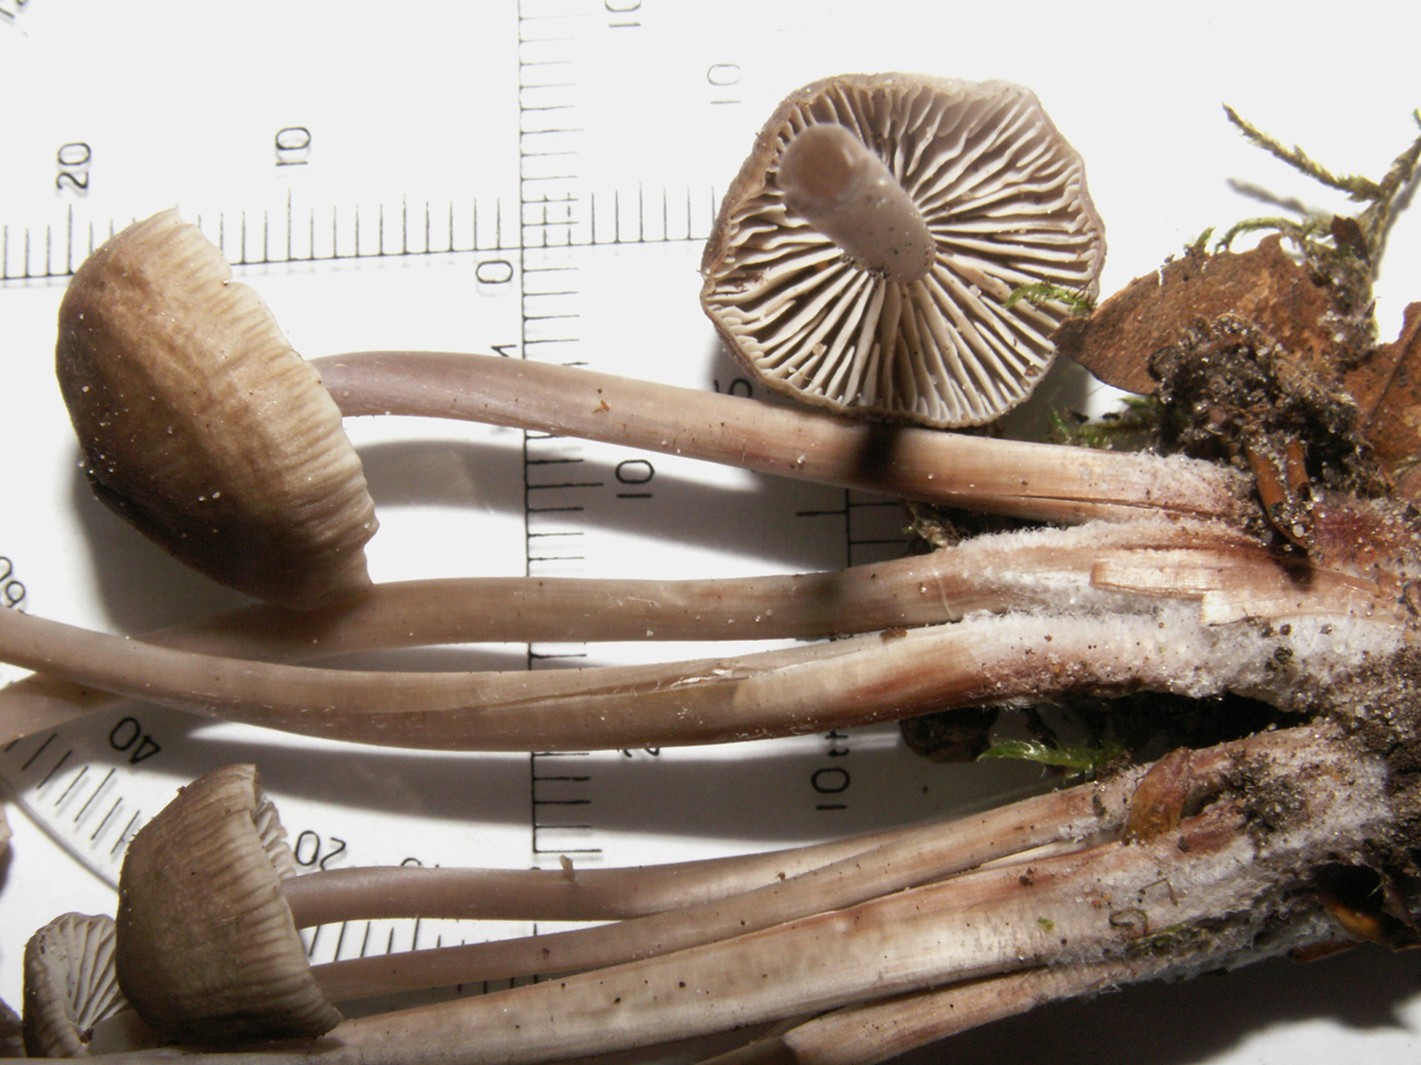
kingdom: Fungi
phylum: Basidiomycota
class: Agaricomycetes
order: Agaricales
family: Mycenaceae
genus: Mycena
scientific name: Mycena polygramma
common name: mangestribet huesvamp
